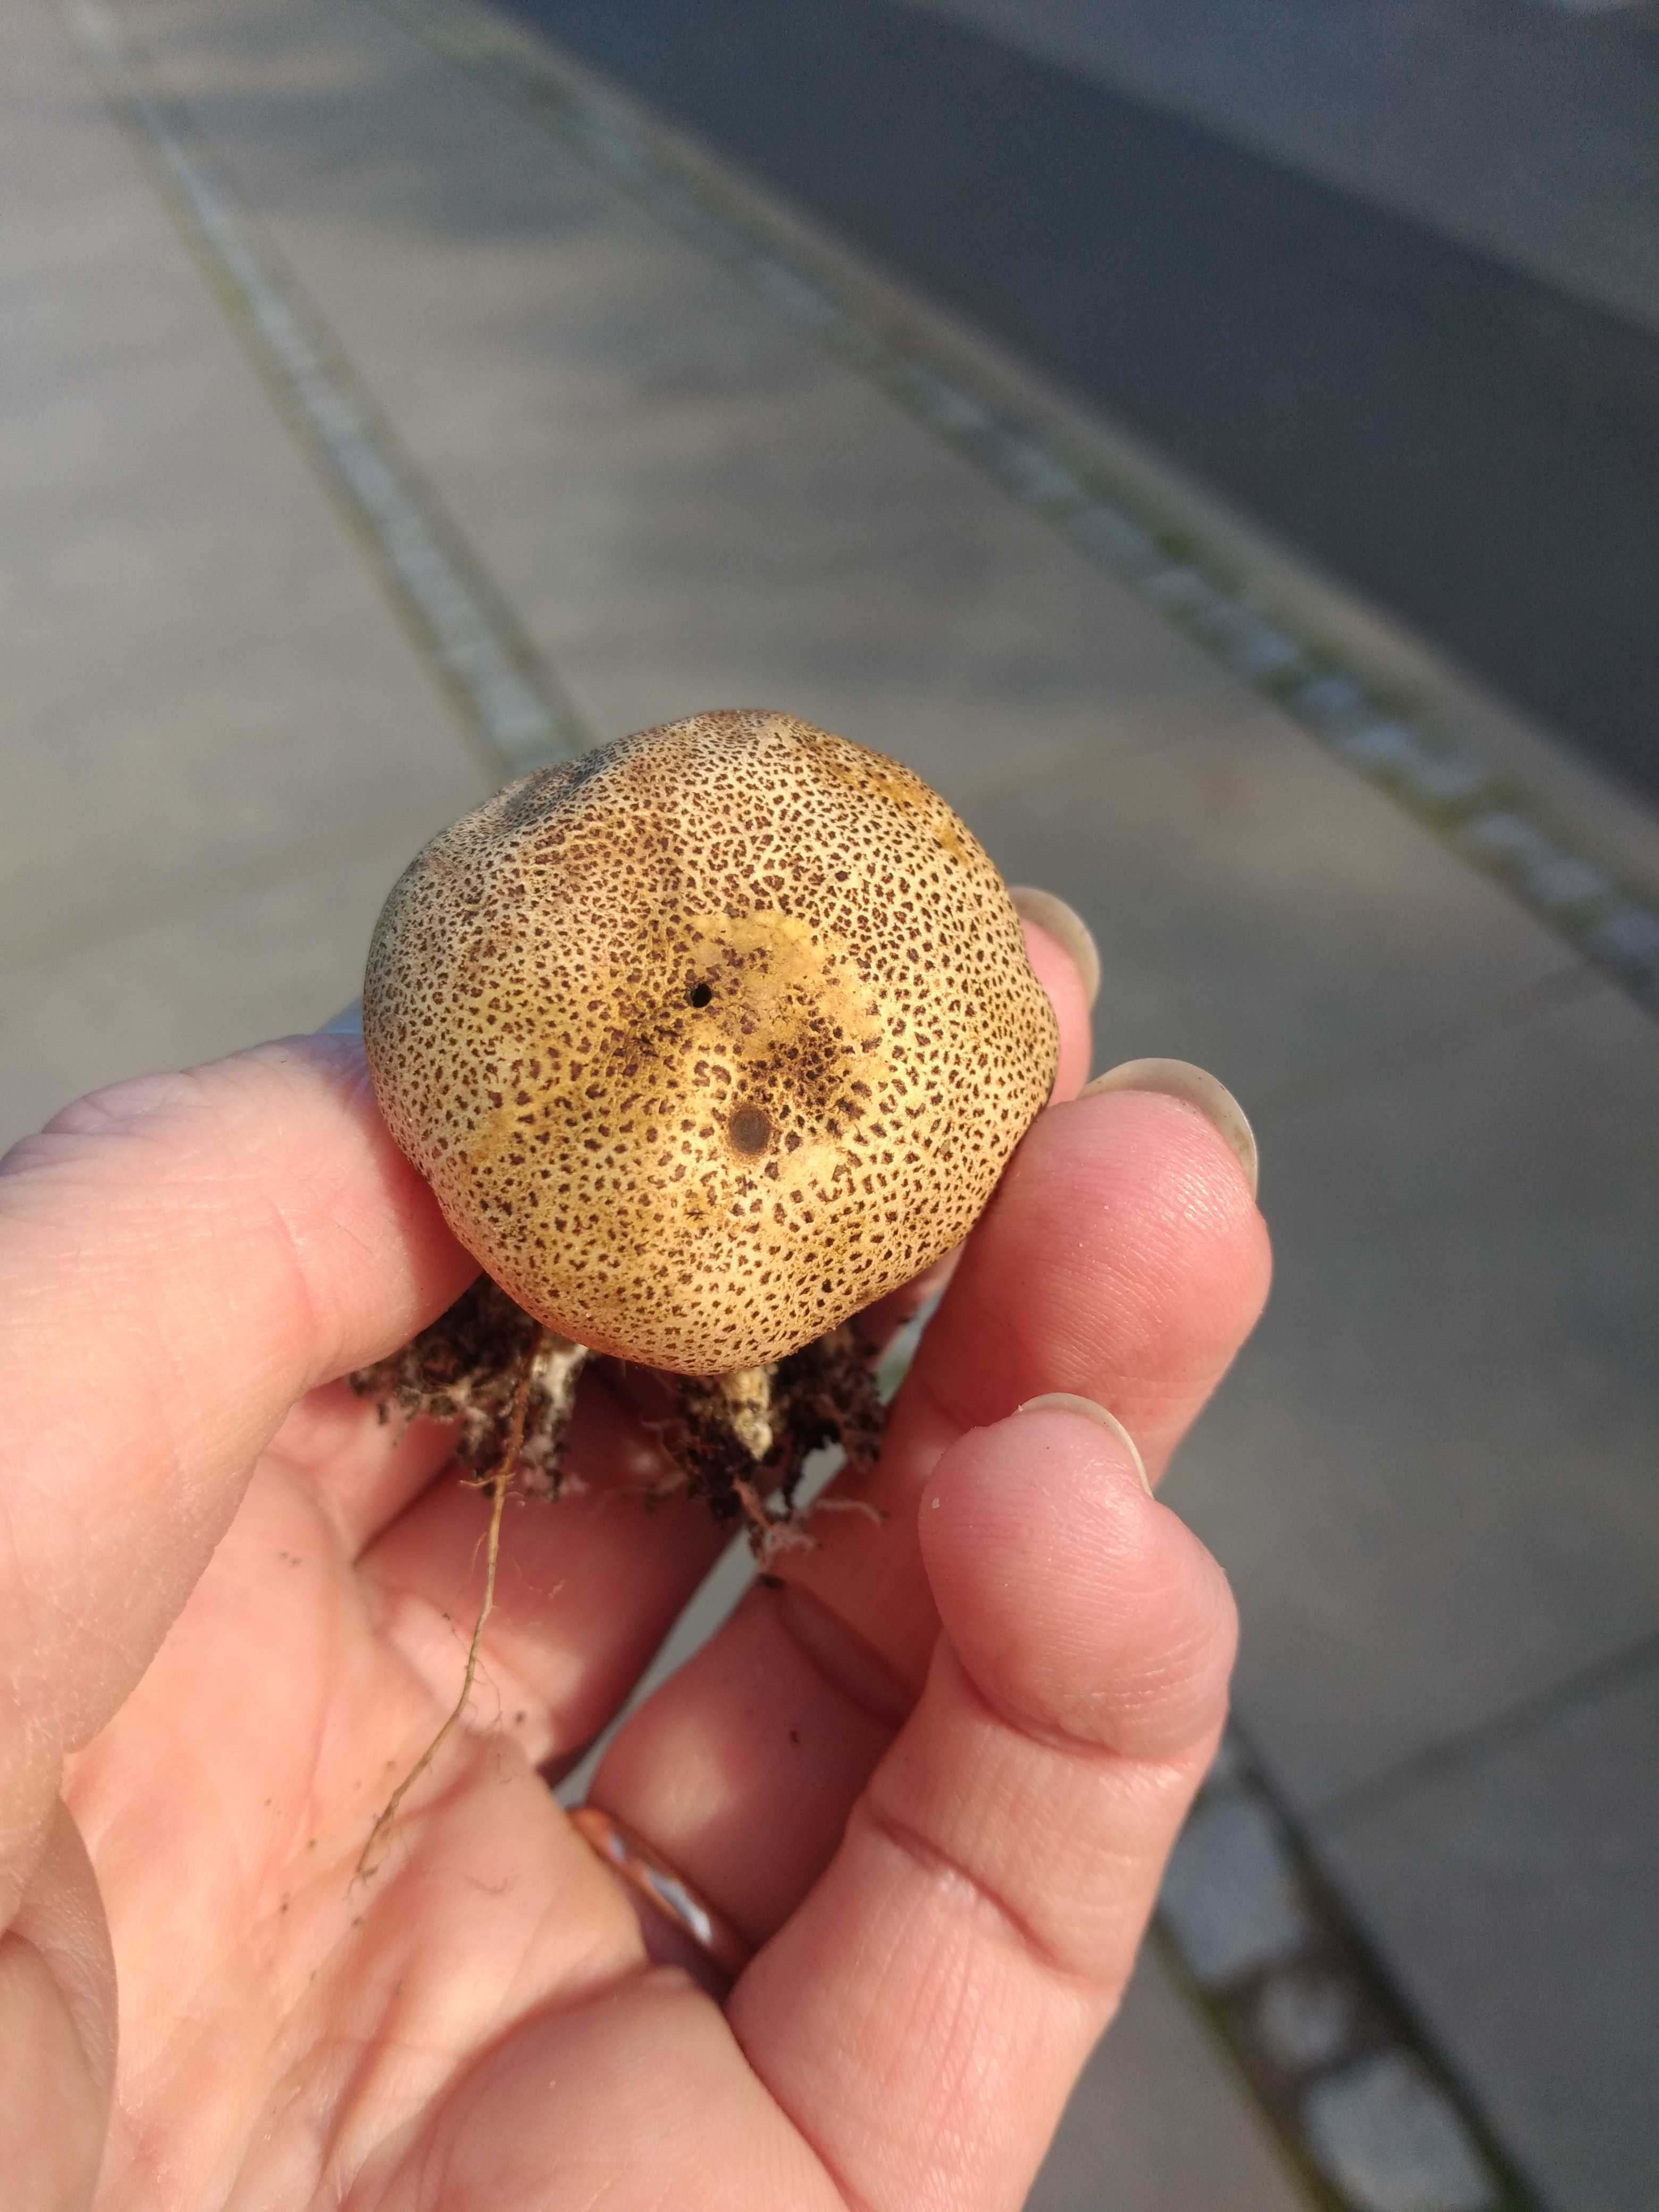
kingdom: Fungi
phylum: Basidiomycota
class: Agaricomycetes
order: Boletales
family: Sclerodermataceae
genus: Scleroderma
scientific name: Scleroderma areolatum
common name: plettet bruskbold
